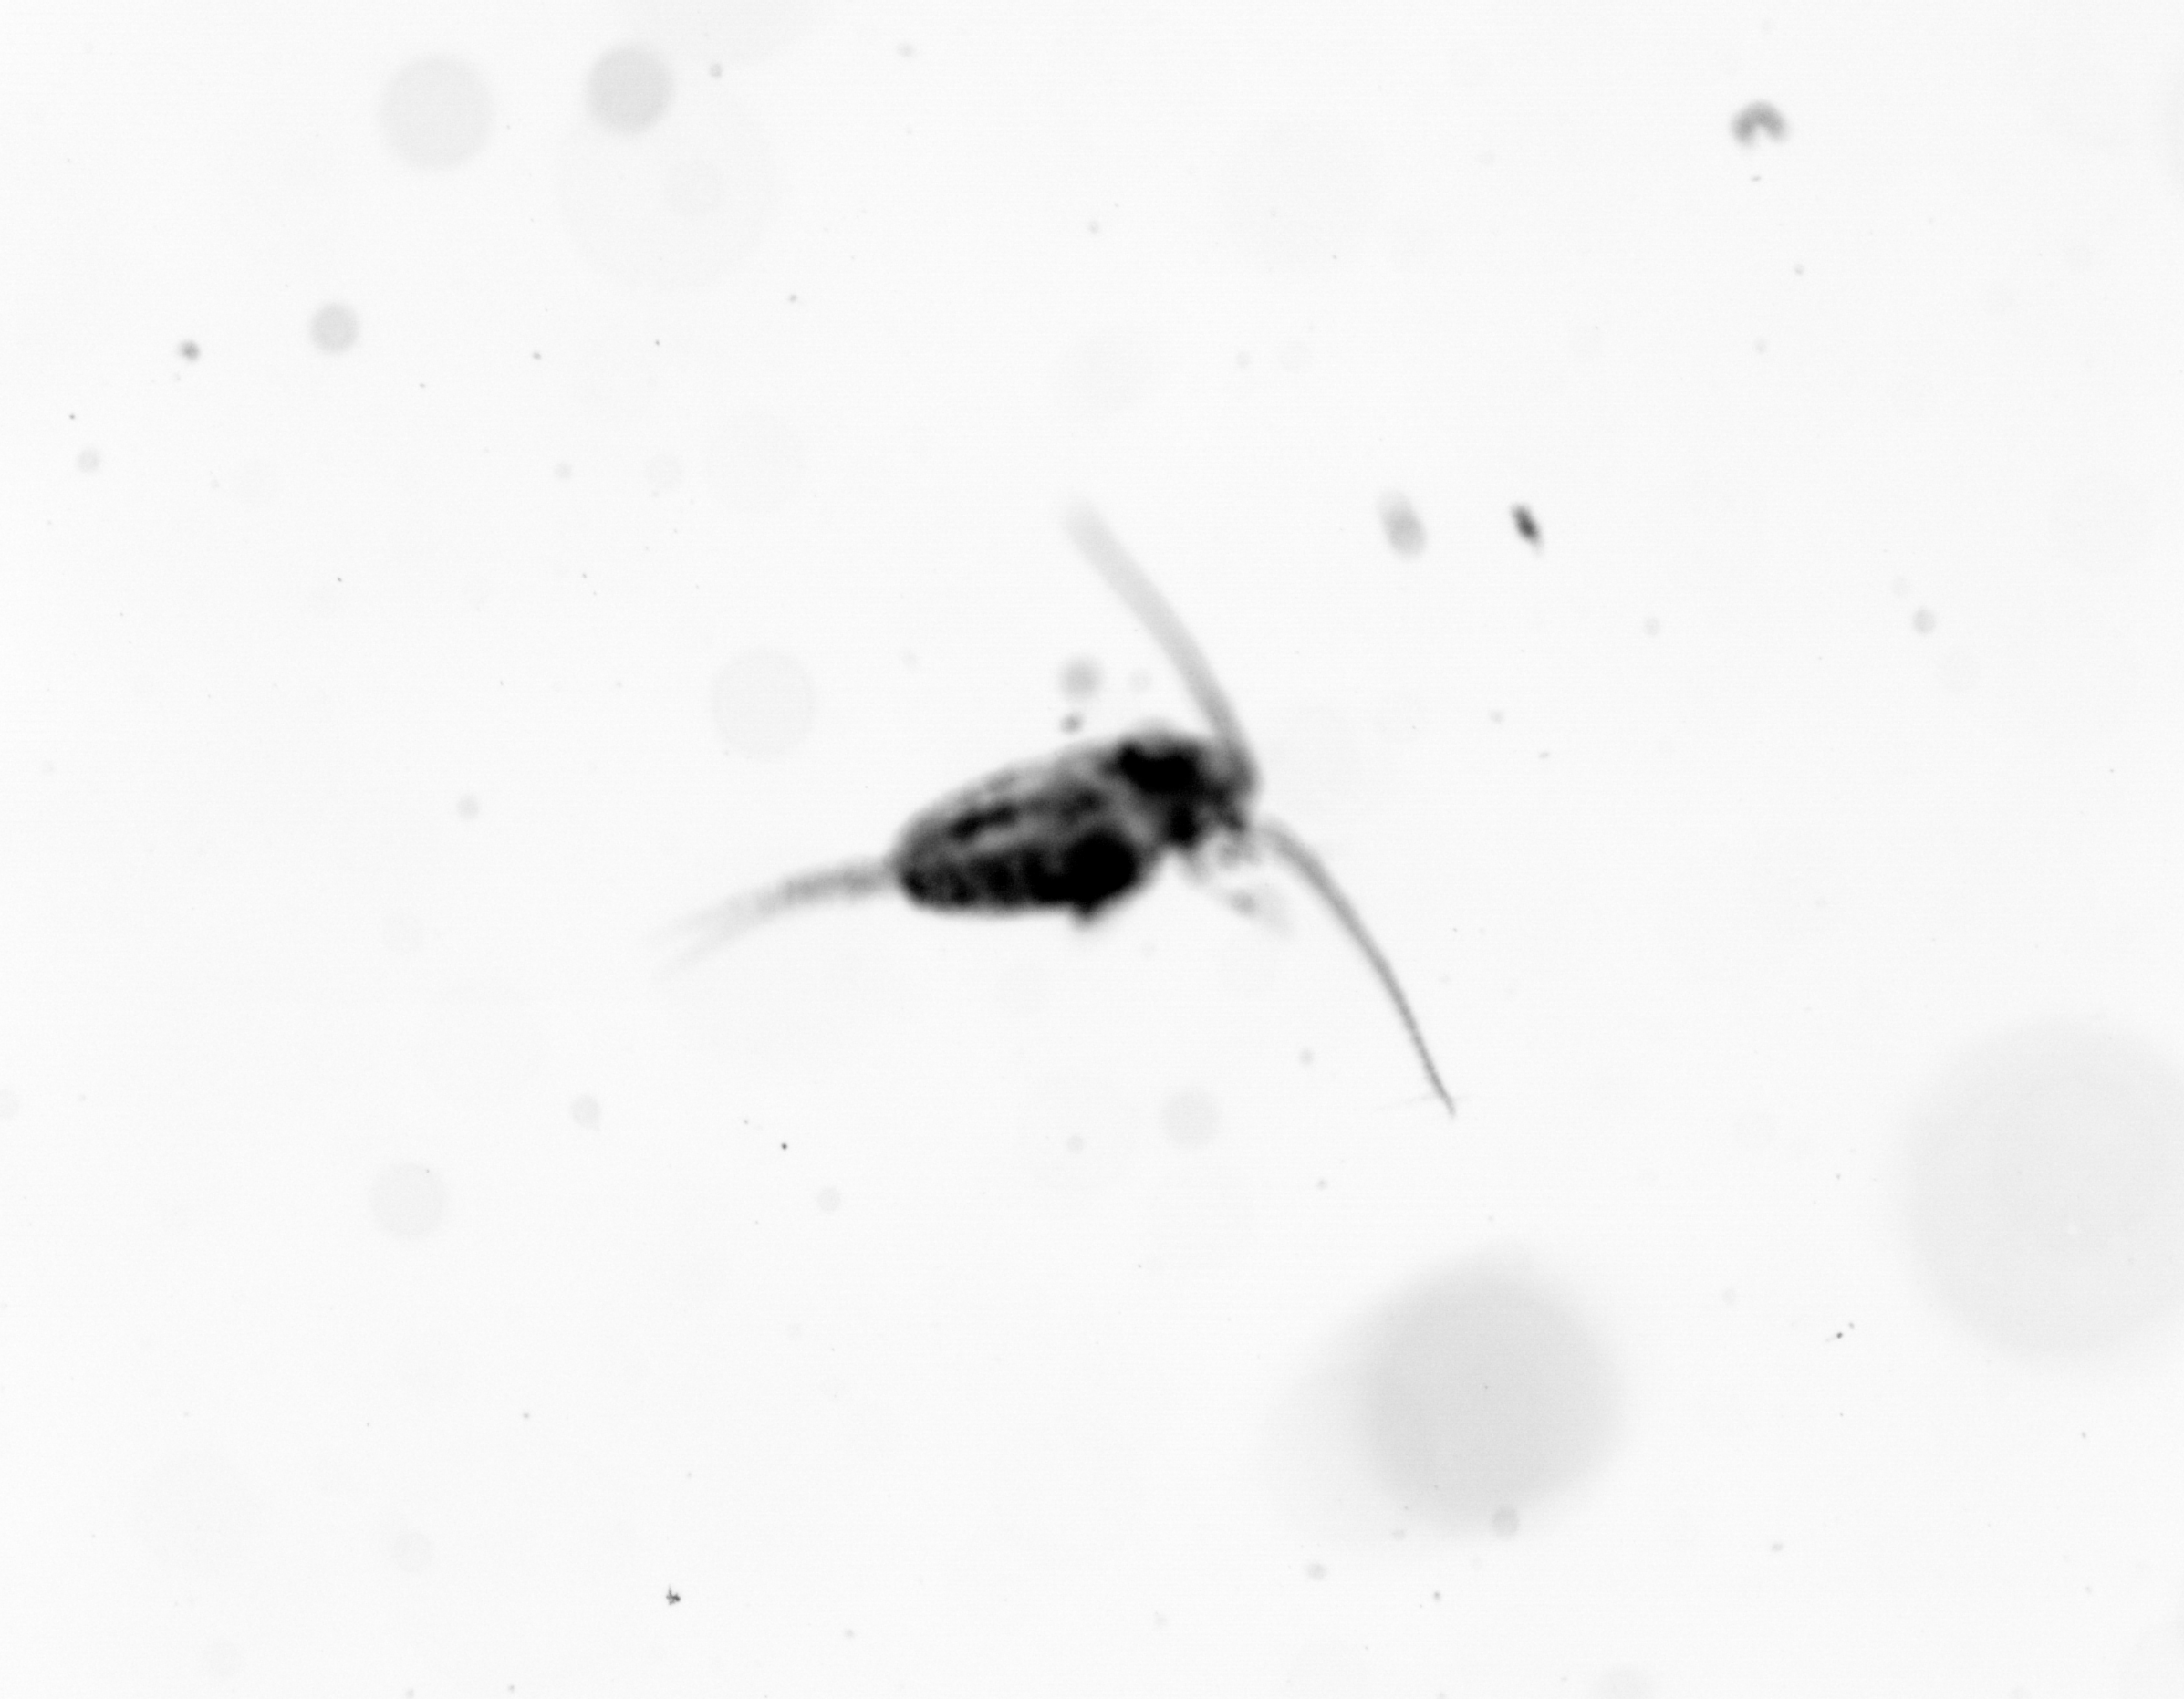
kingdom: Animalia
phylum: Arthropoda
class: Copepoda
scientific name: Copepoda
